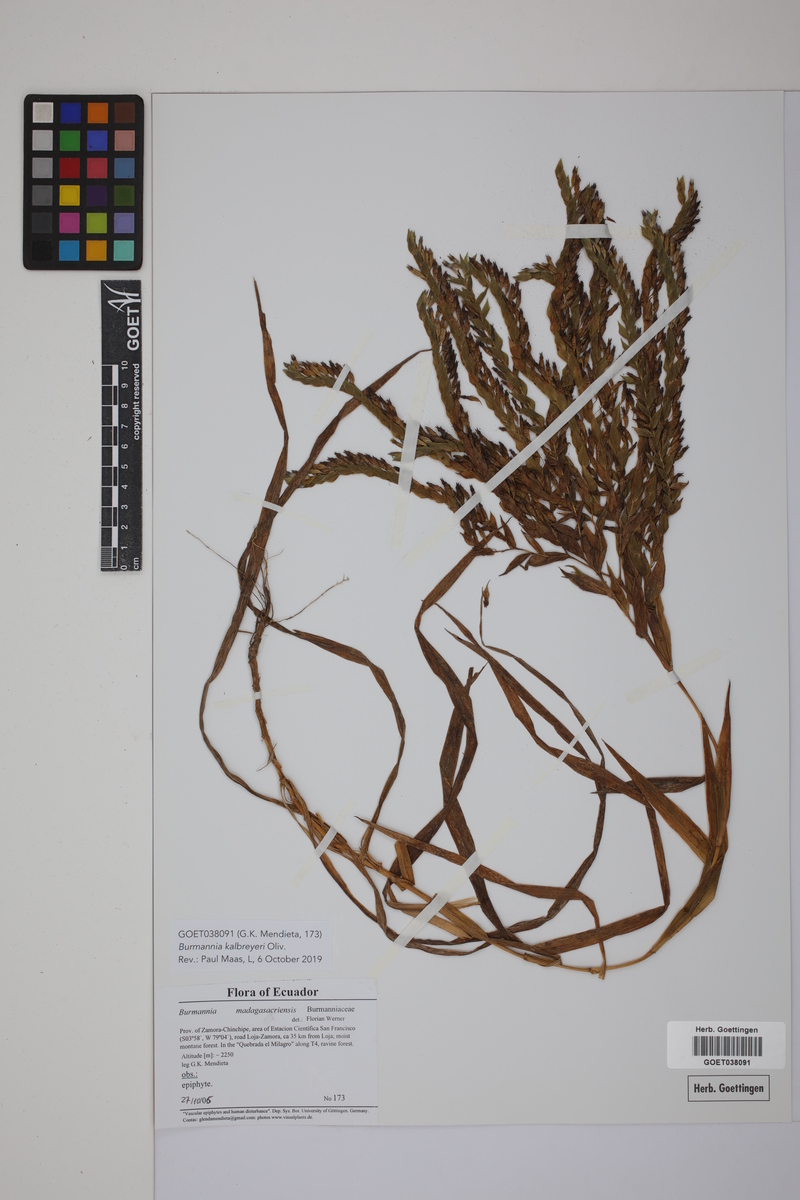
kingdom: Plantae
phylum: Tracheophyta
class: Liliopsida
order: Dioscoreales
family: Burmanniaceae
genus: Burmannia
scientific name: Burmannia kalbreyeri
